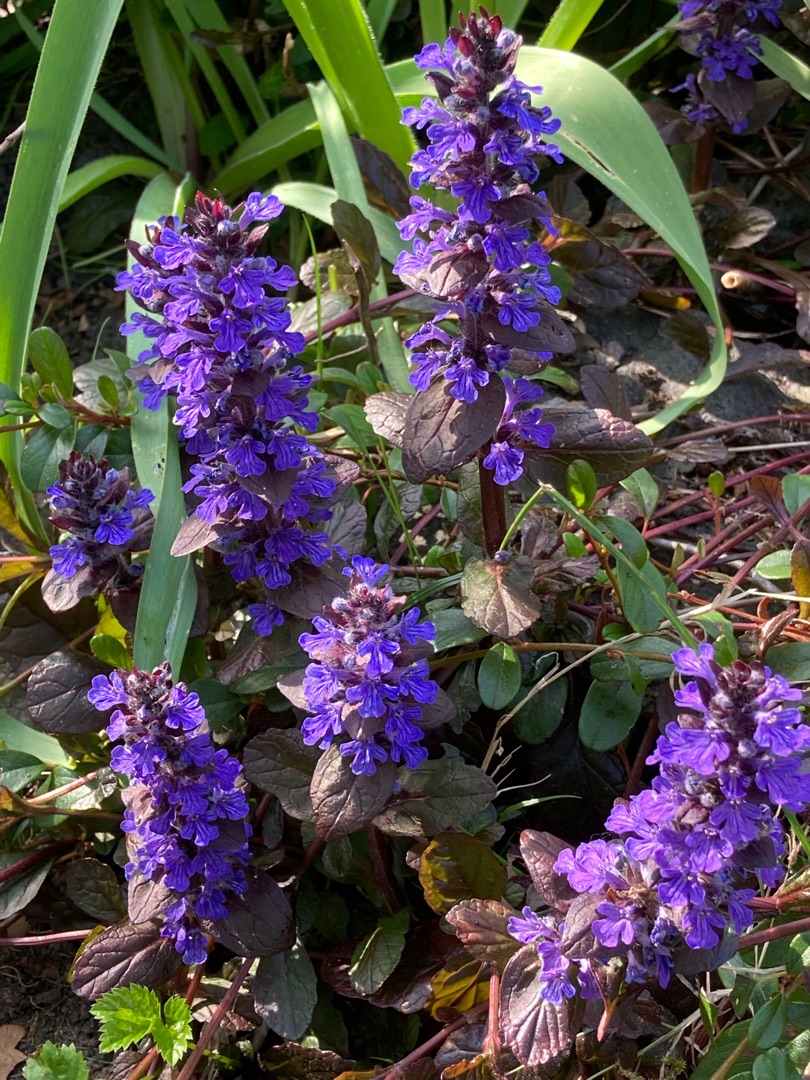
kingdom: Plantae
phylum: Tracheophyta
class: Magnoliopsida
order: Lamiales
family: Lamiaceae
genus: Ajuga
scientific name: Ajuga reptans
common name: Krybende læbeløs
